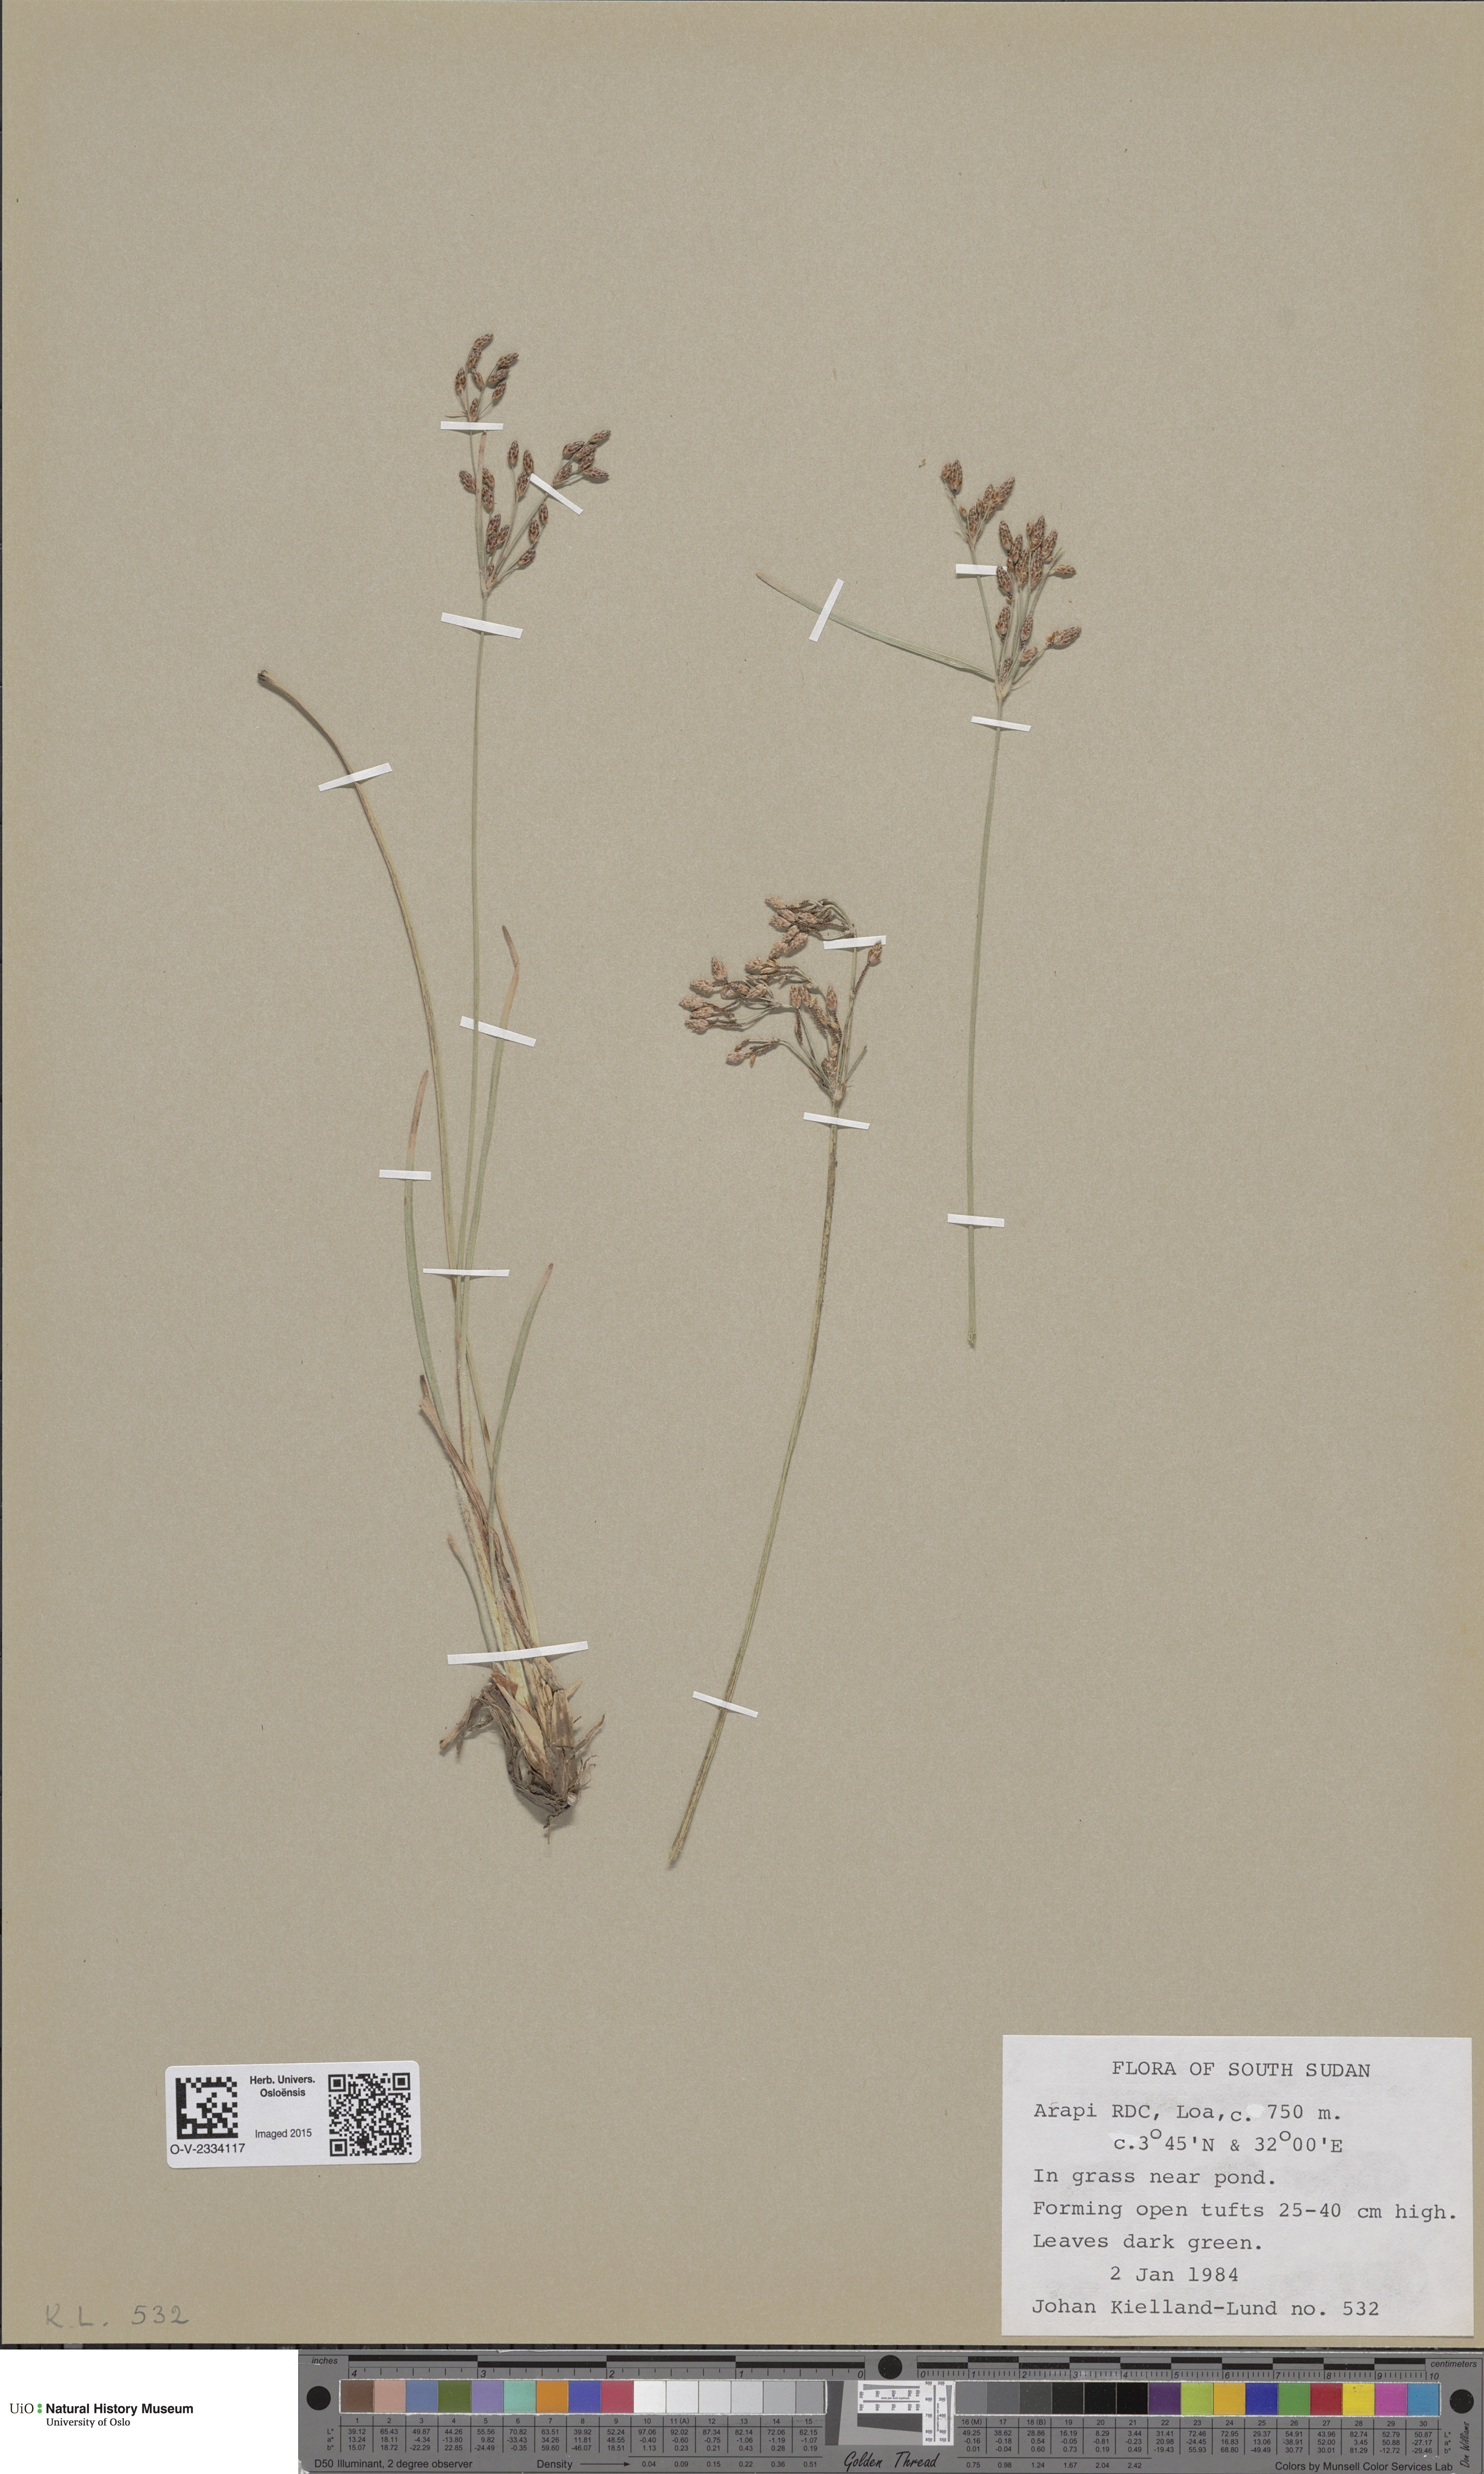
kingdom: Plantae
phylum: Tracheophyta
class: Liliopsida
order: Poales
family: Poaceae
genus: Poa
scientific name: Poa alpina
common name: Alpine bluegrass
